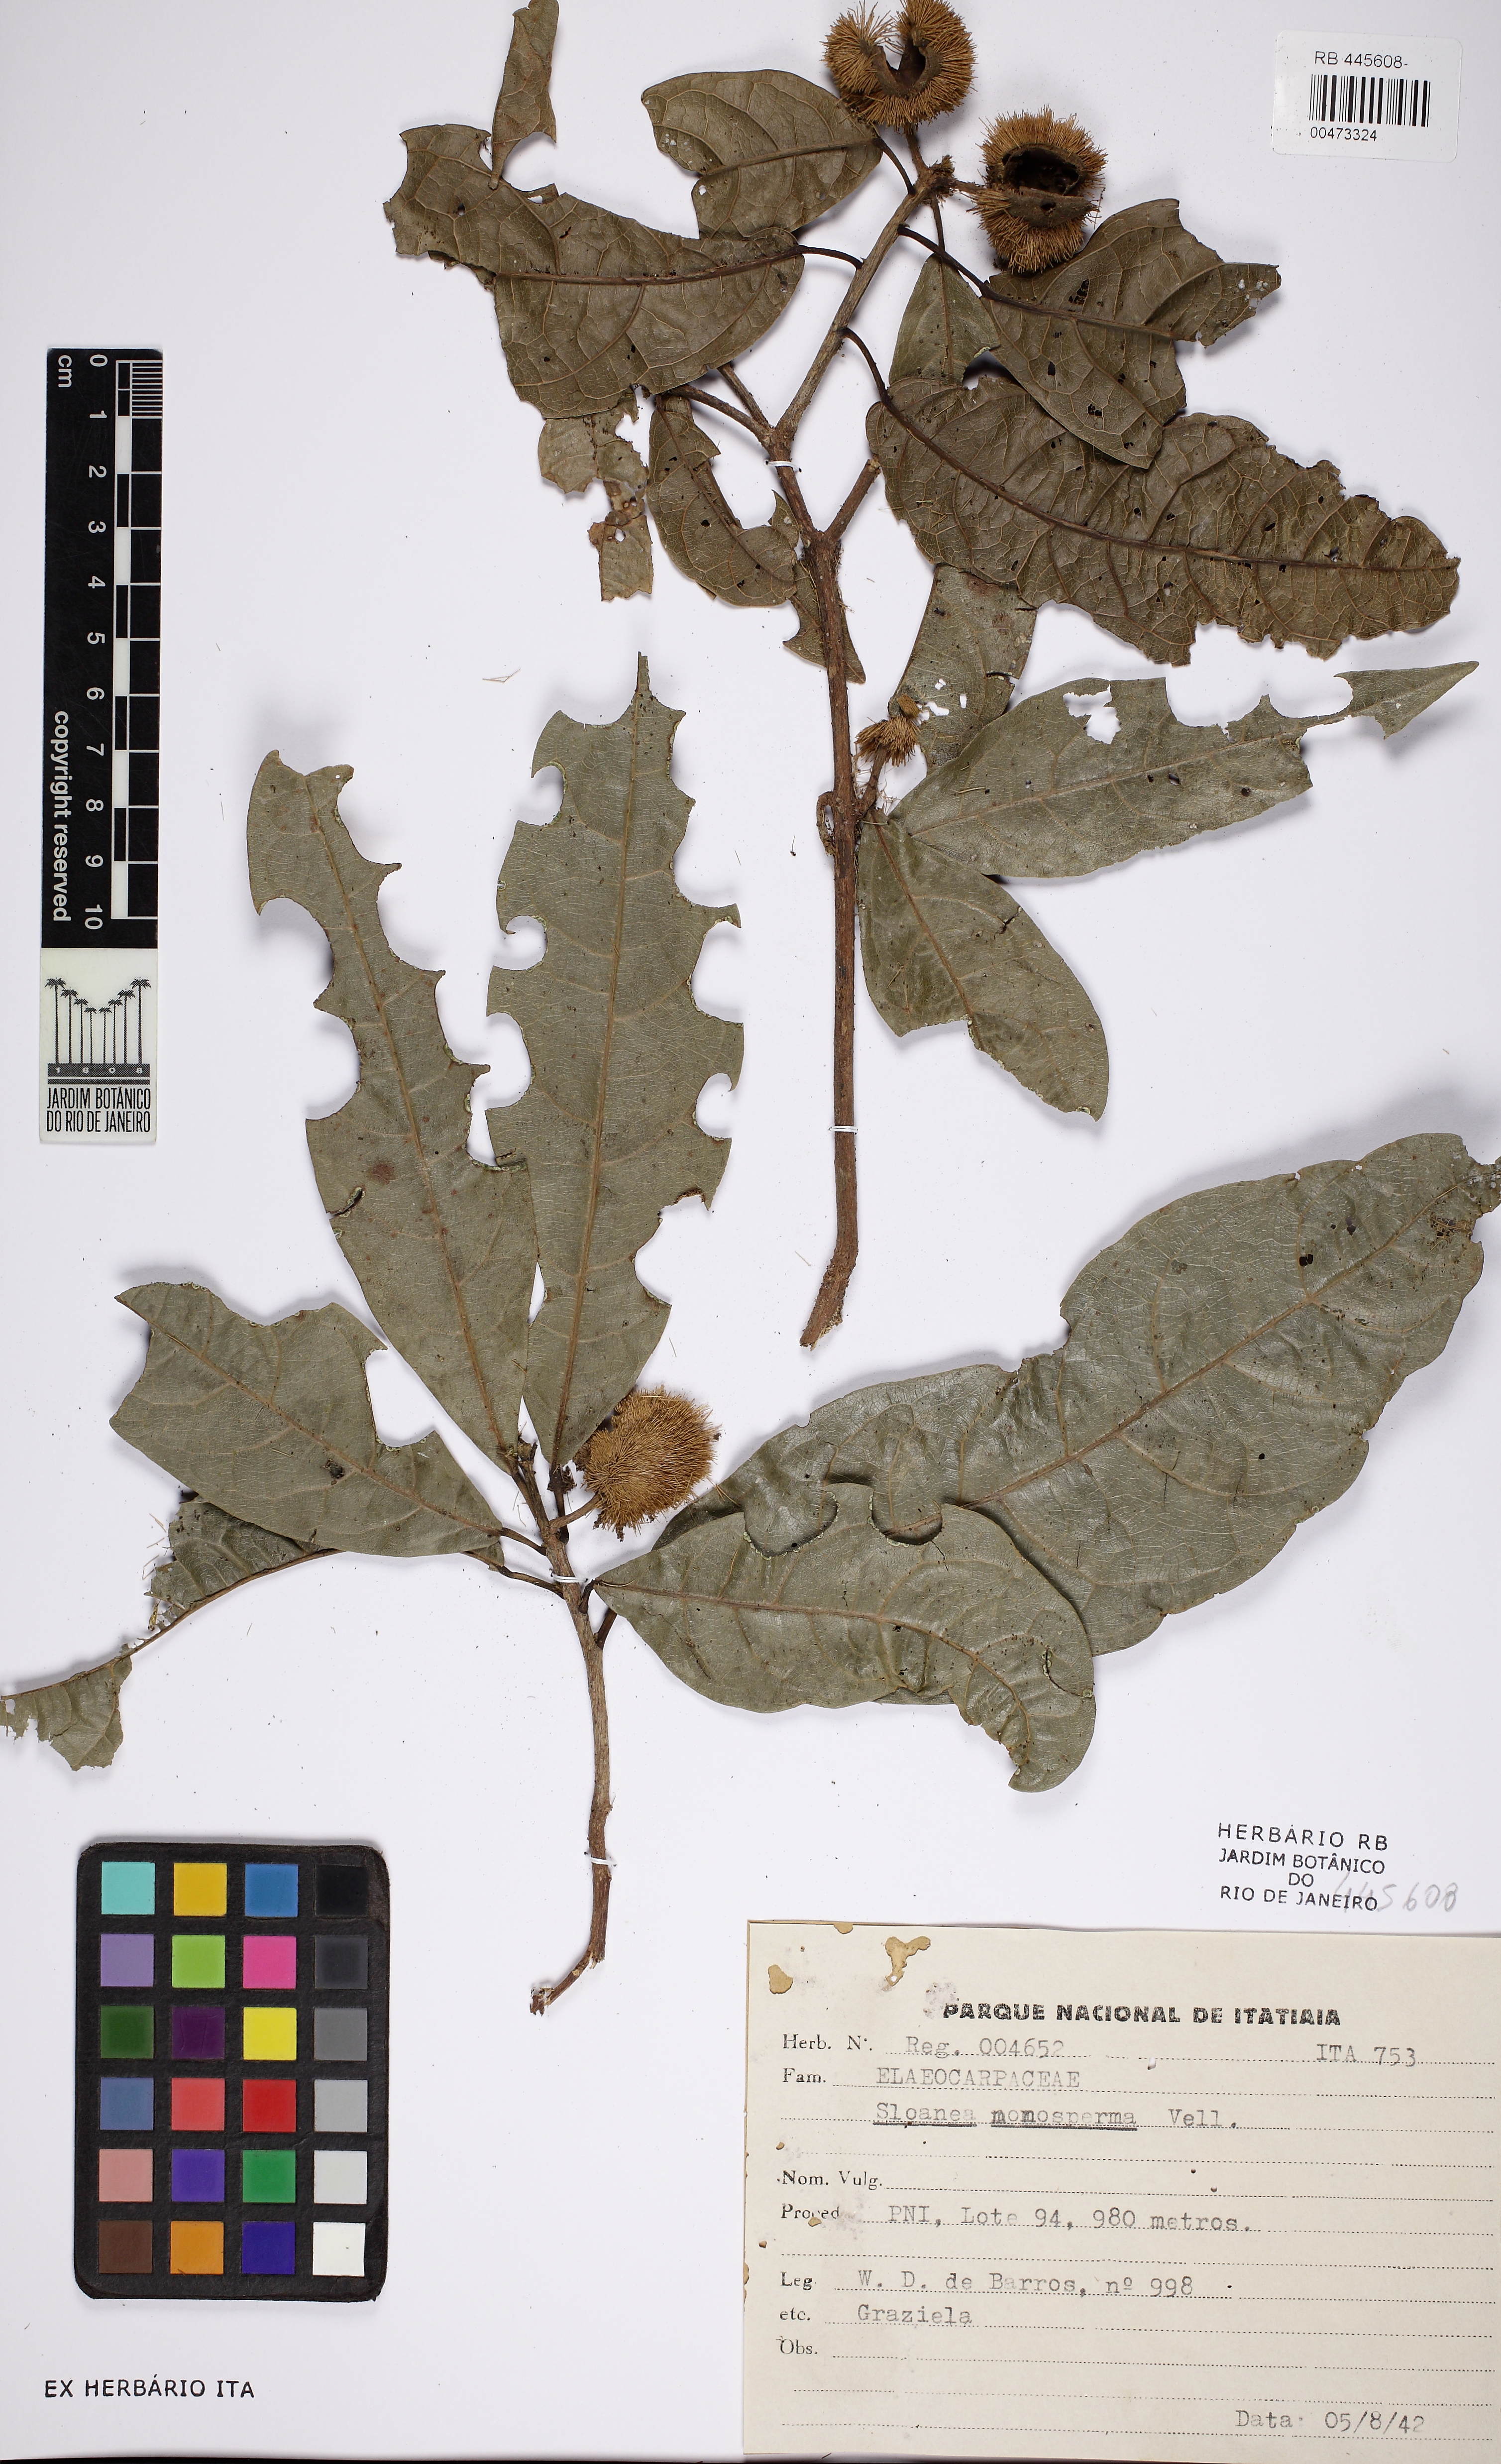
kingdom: Plantae
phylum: Tracheophyta
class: Magnoliopsida
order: Oxalidales
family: Elaeocarpaceae
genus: Sloanea
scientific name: Sloanea hirsuta
